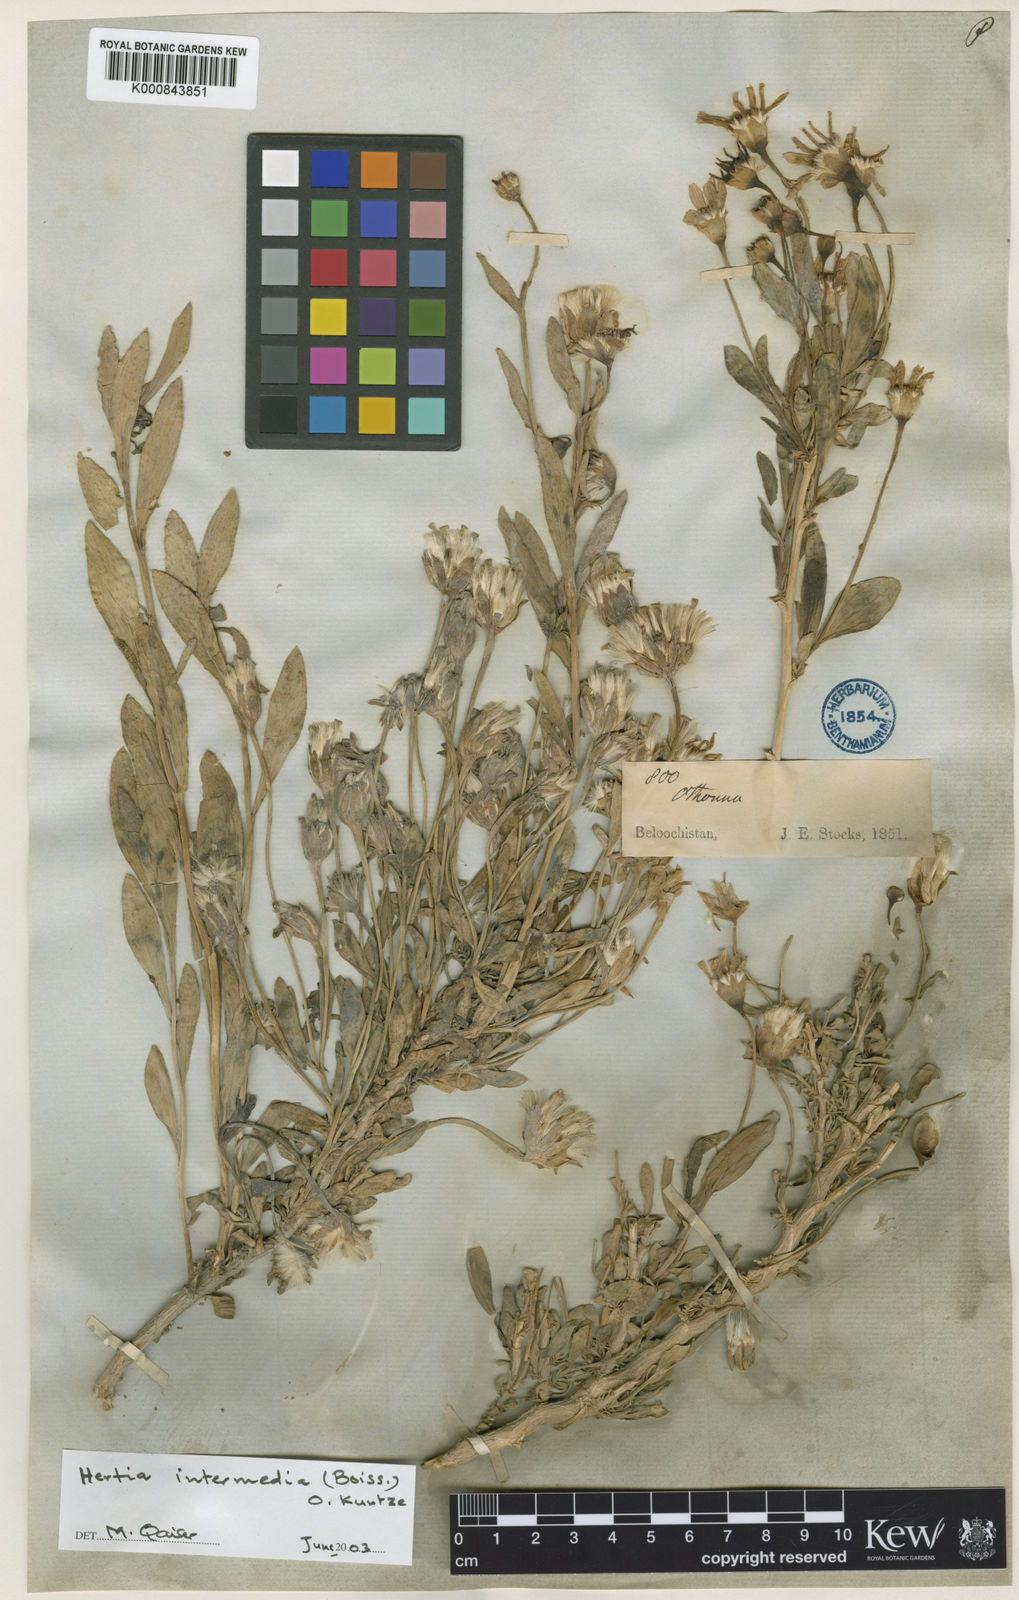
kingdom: Plantae
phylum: Tracheophyta
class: Magnoliopsida
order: Asterales
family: Asteraceae
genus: Hertia
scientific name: Hertia intermedia
